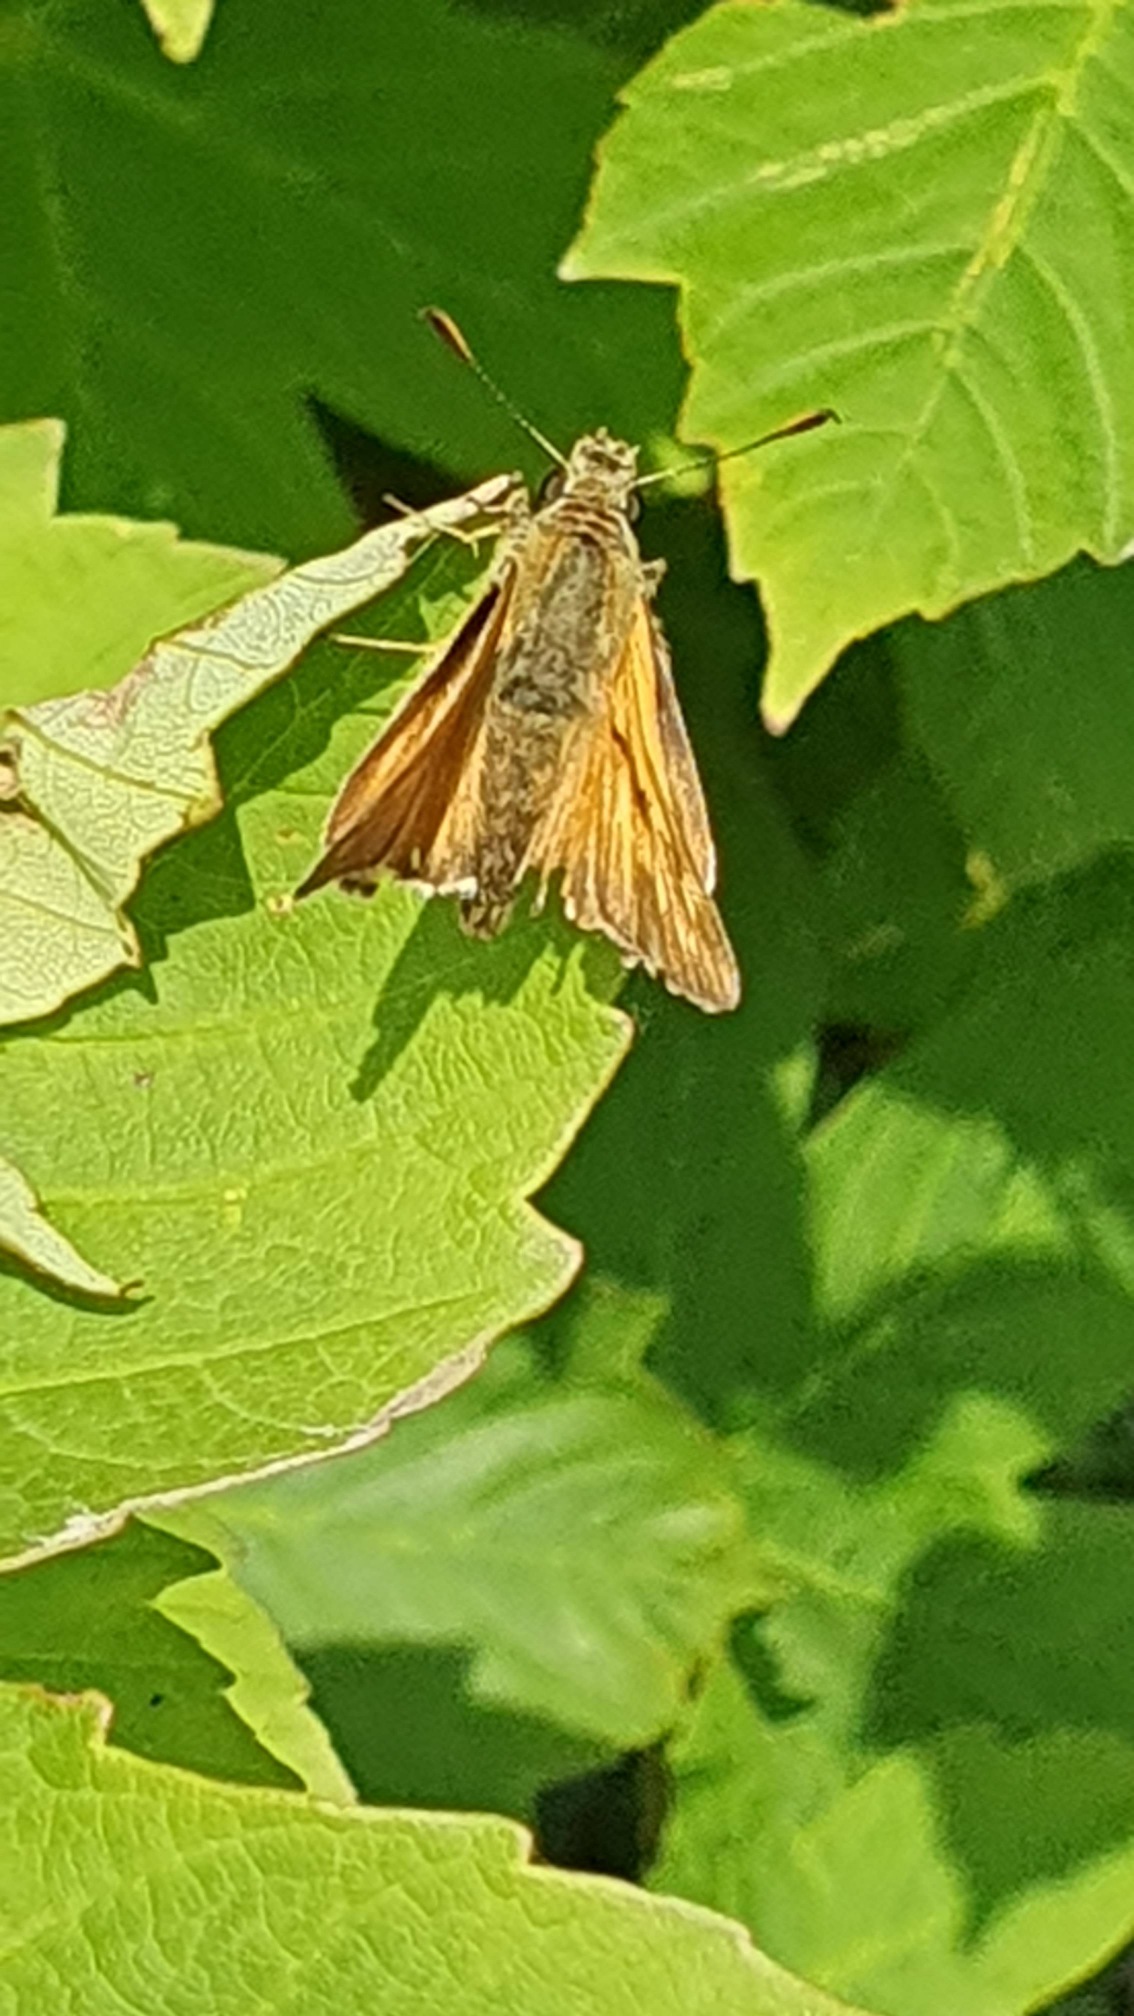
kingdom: Animalia
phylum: Arthropoda
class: Insecta
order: Lepidoptera
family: Hesperiidae
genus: Ochlodes
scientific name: Ochlodes venata
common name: Stor bredpande
